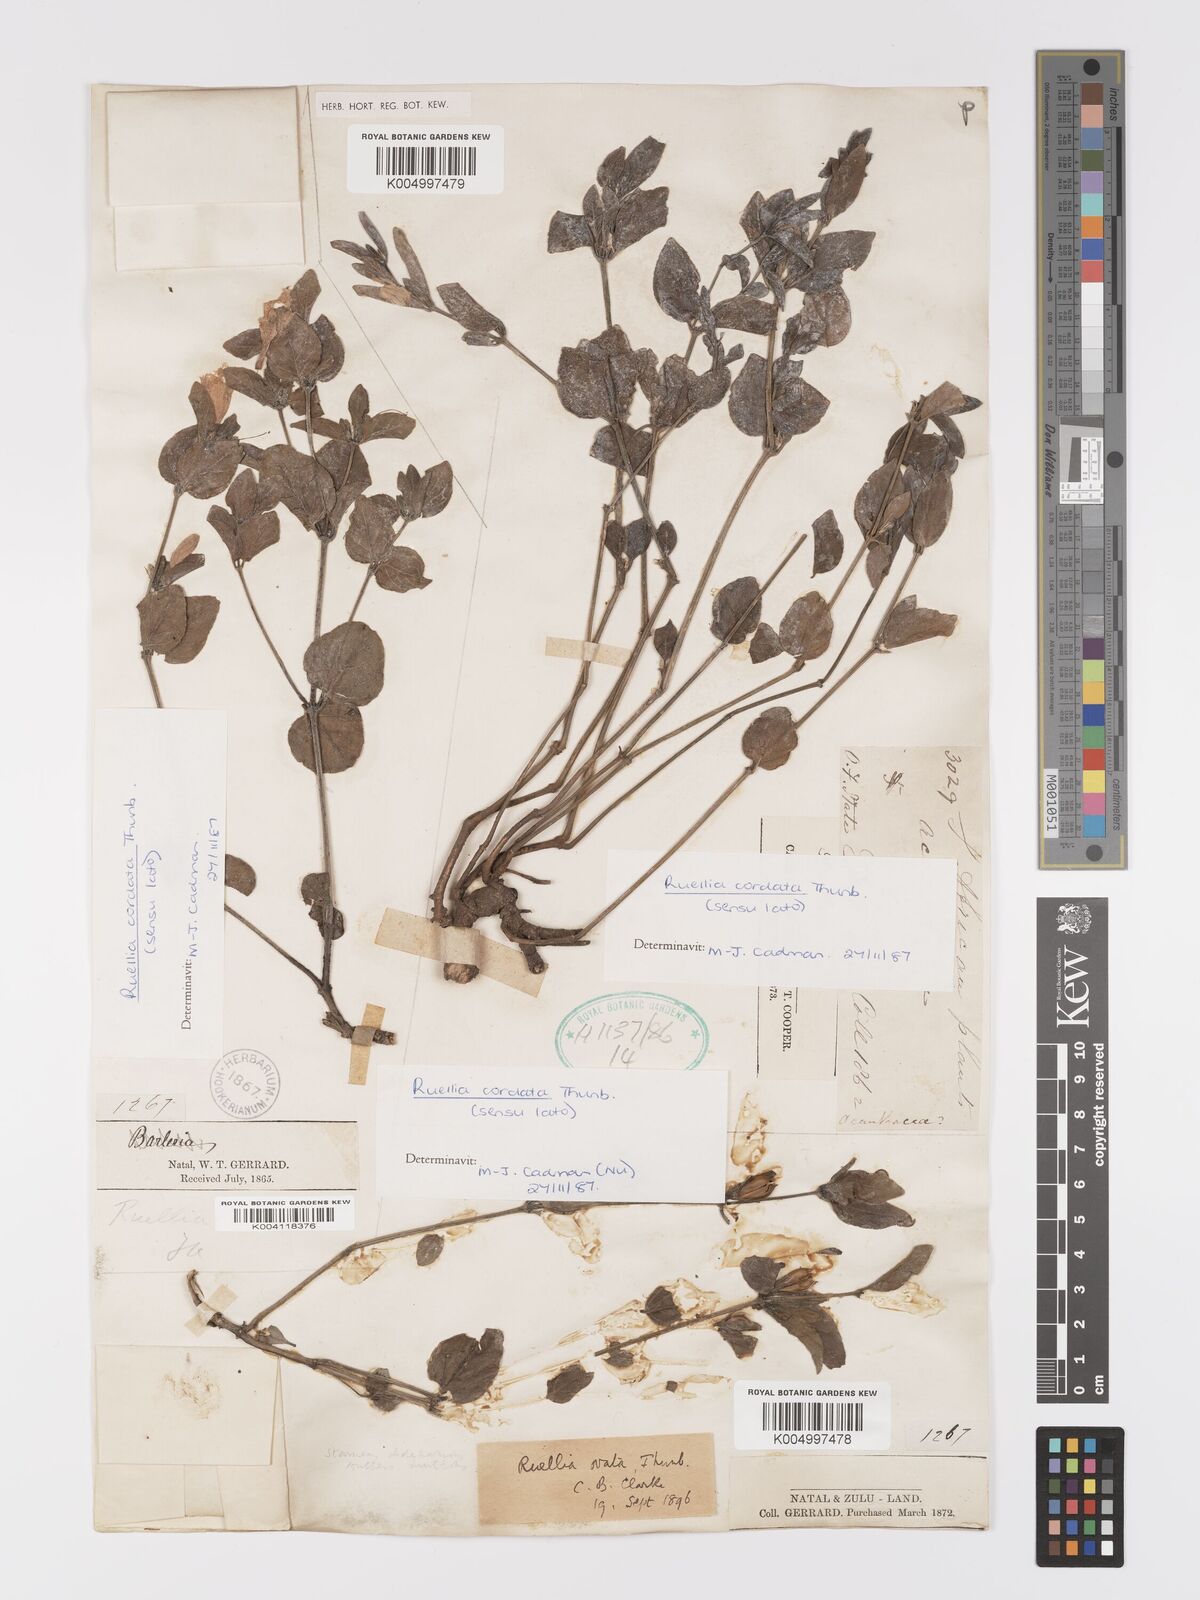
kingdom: Plantae
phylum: Tracheophyta
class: Magnoliopsida
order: Lamiales
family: Acanthaceae
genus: Ruellia
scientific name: Ruellia cordata
